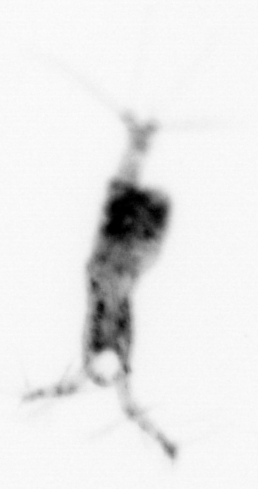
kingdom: Animalia
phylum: Arthropoda
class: Copepoda
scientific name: Copepoda
